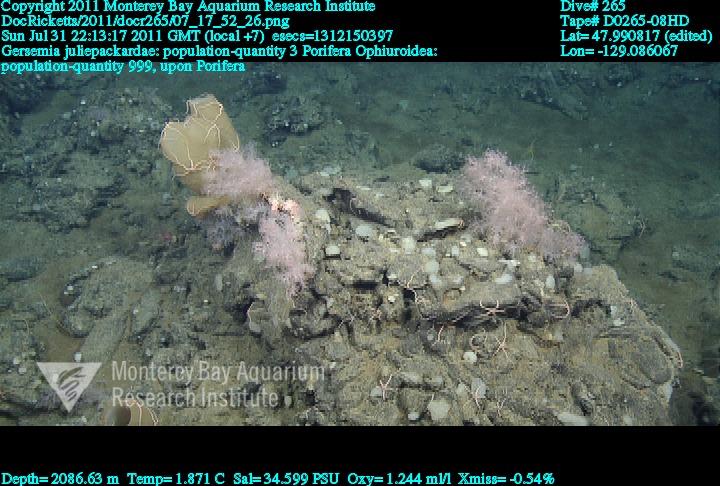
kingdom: Animalia
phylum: Porifera
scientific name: Porifera
